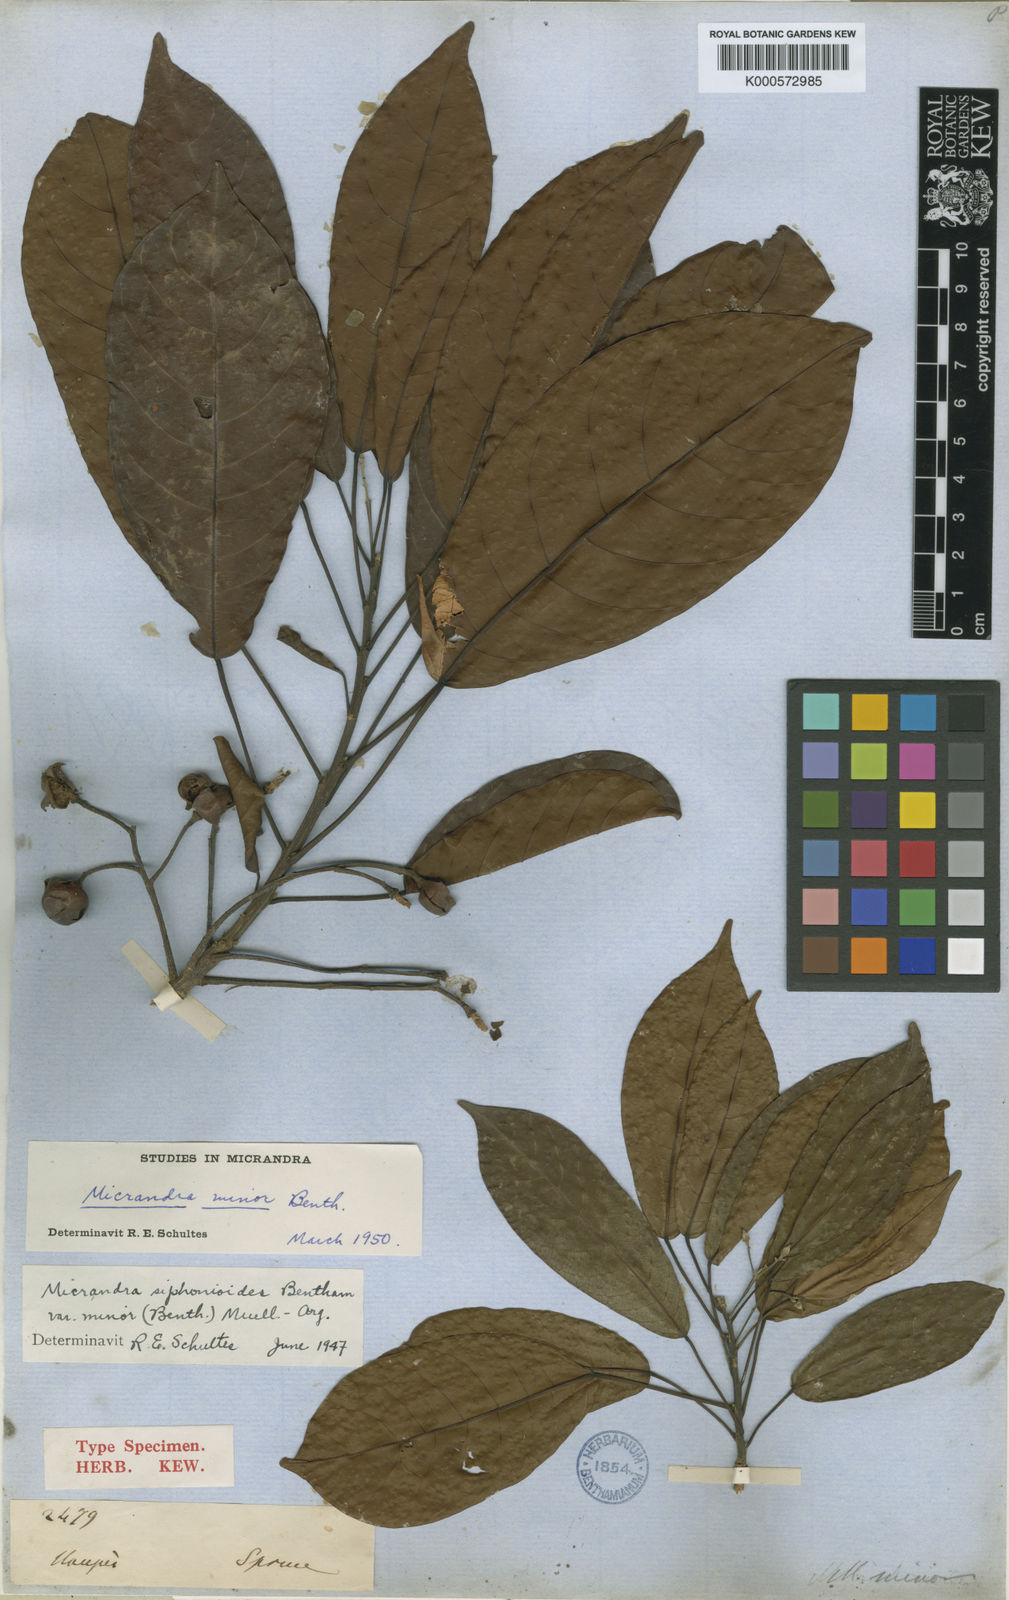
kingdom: Plantae
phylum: Tracheophyta
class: Magnoliopsida
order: Malpighiales
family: Euphorbiaceae
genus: Micrandra
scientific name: Micrandra siphonioides
